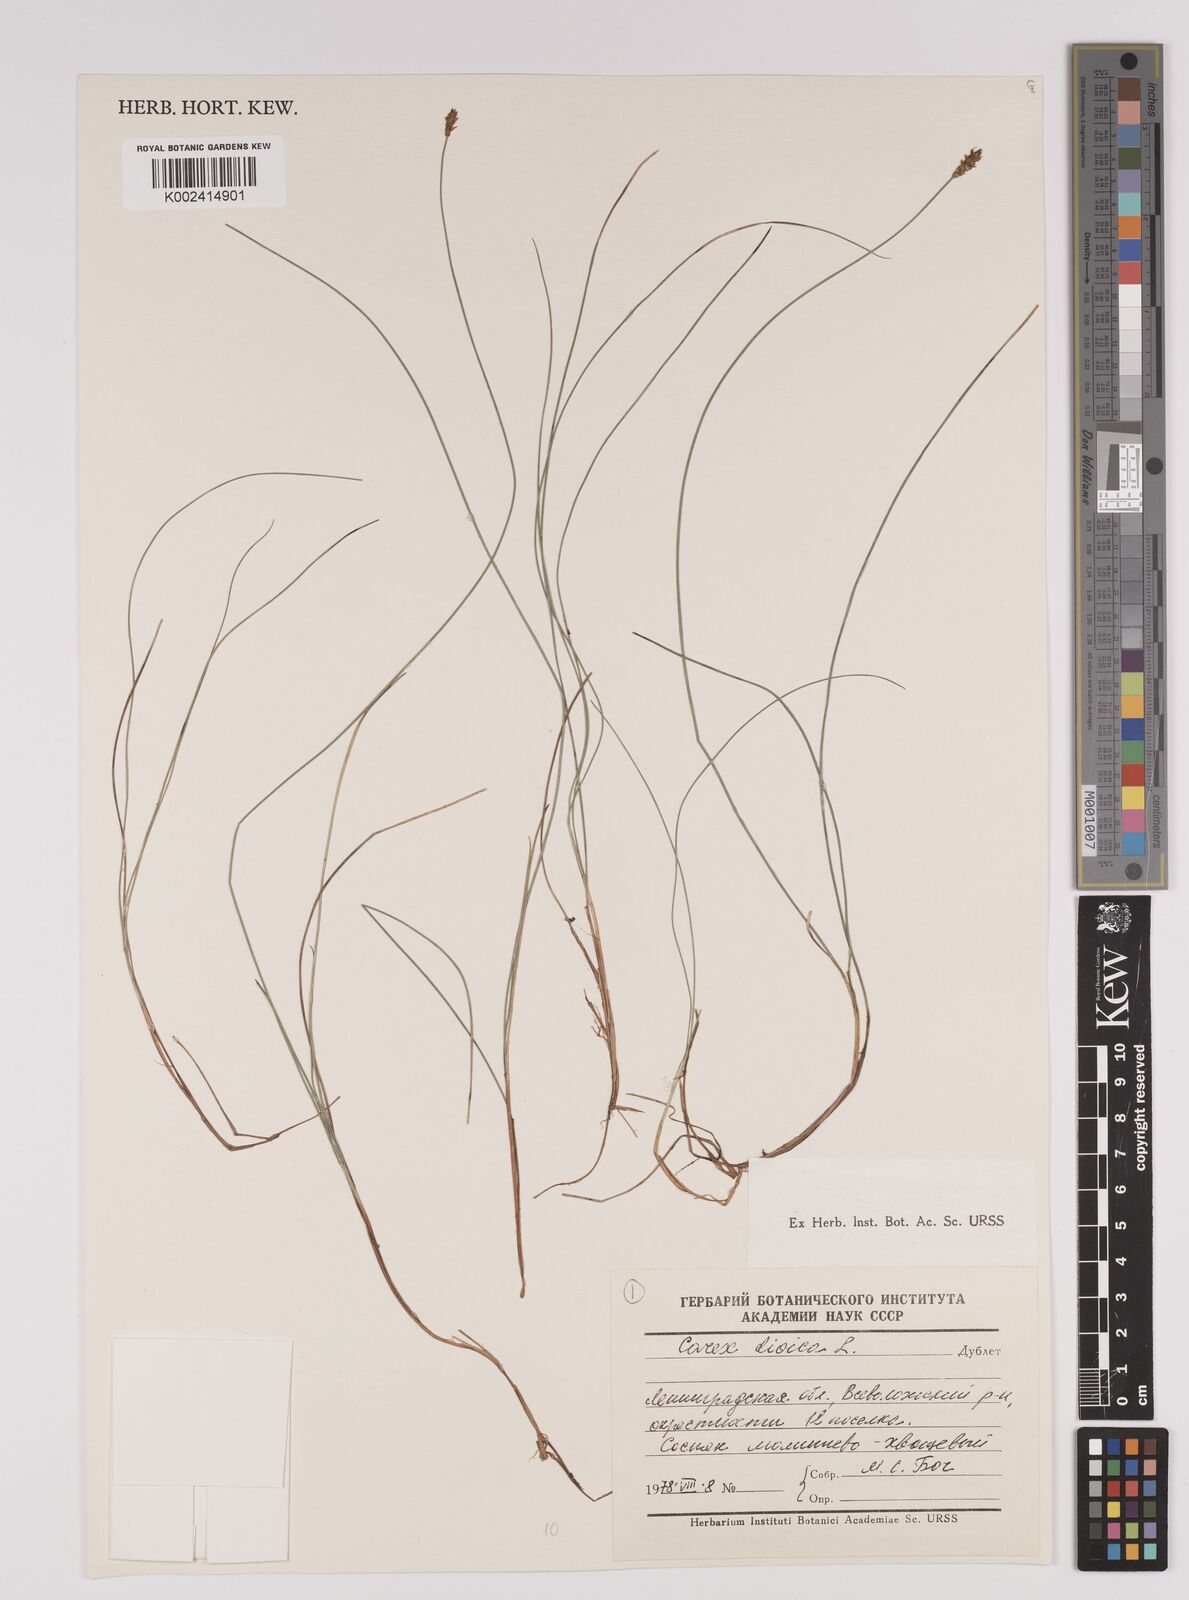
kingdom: Plantae
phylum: Tracheophyta
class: Liliopsida
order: Poales
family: Cyperaceae
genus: Carex
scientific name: Carex dioica
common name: Dioecious sedge
